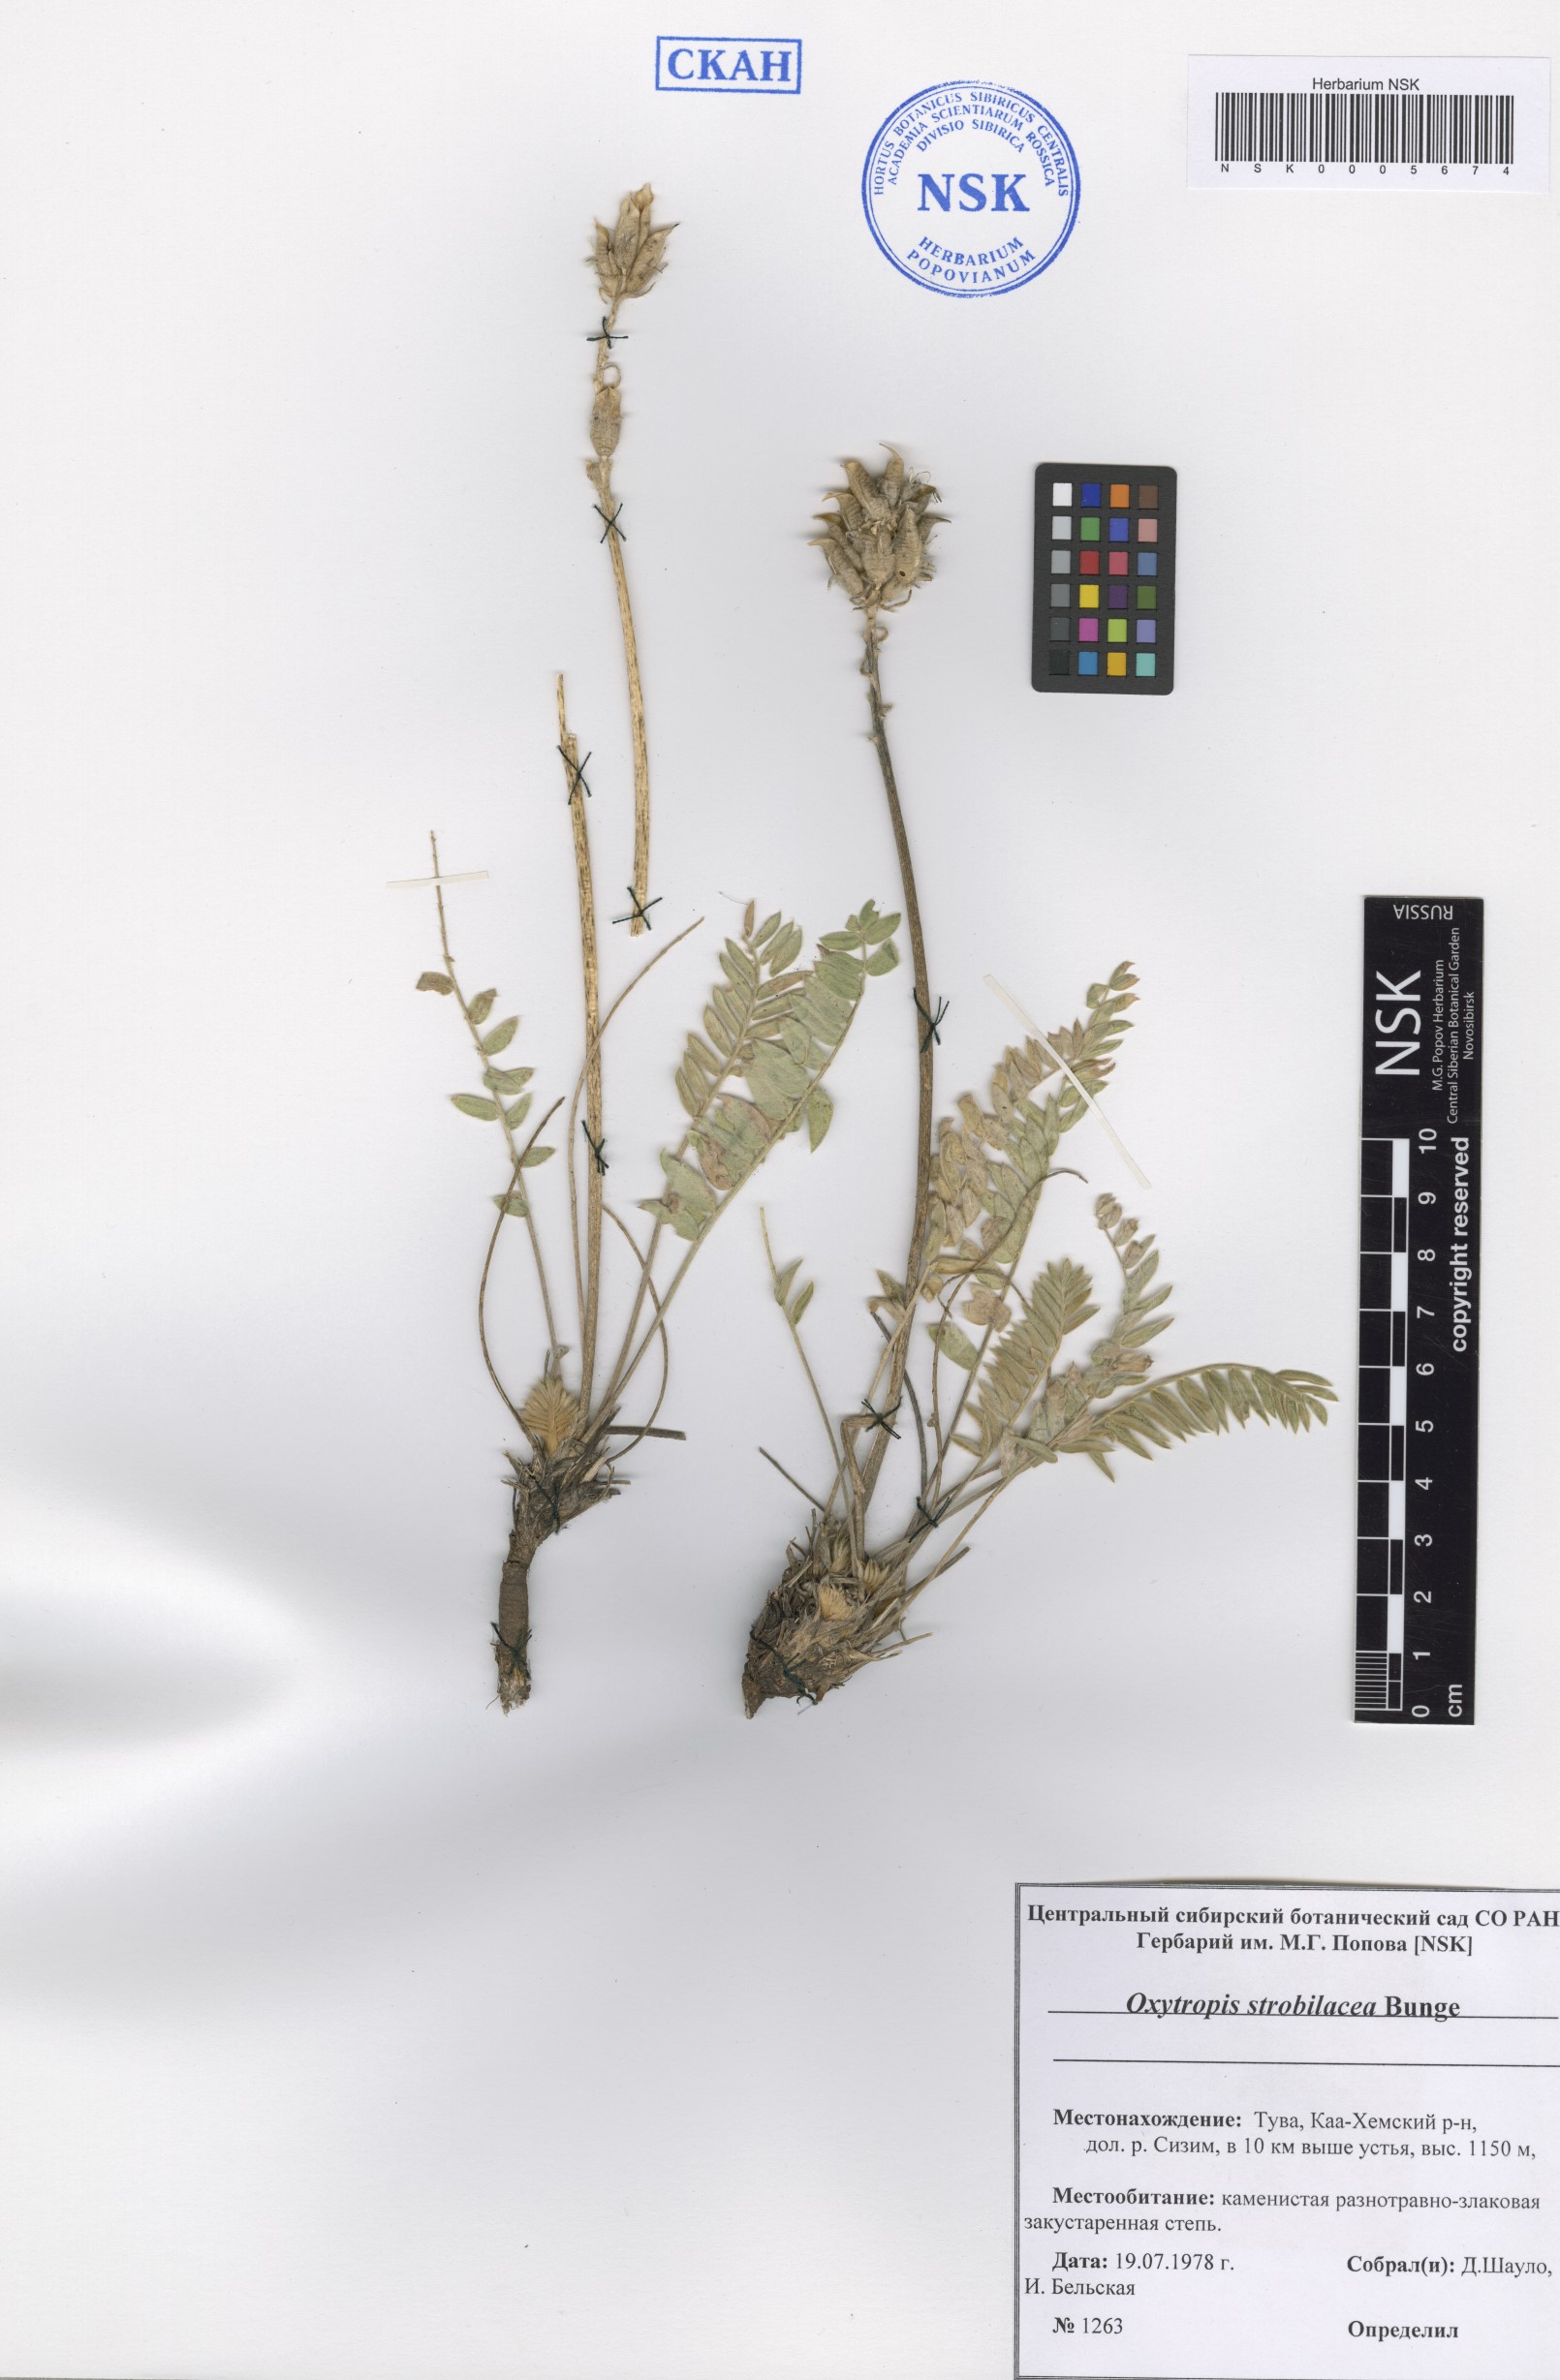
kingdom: Plantae
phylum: Tracheophyta
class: Magnoliopsida
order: Fabales
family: Fabaceae
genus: Oxytropis
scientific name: Oxytropis strobilacea
